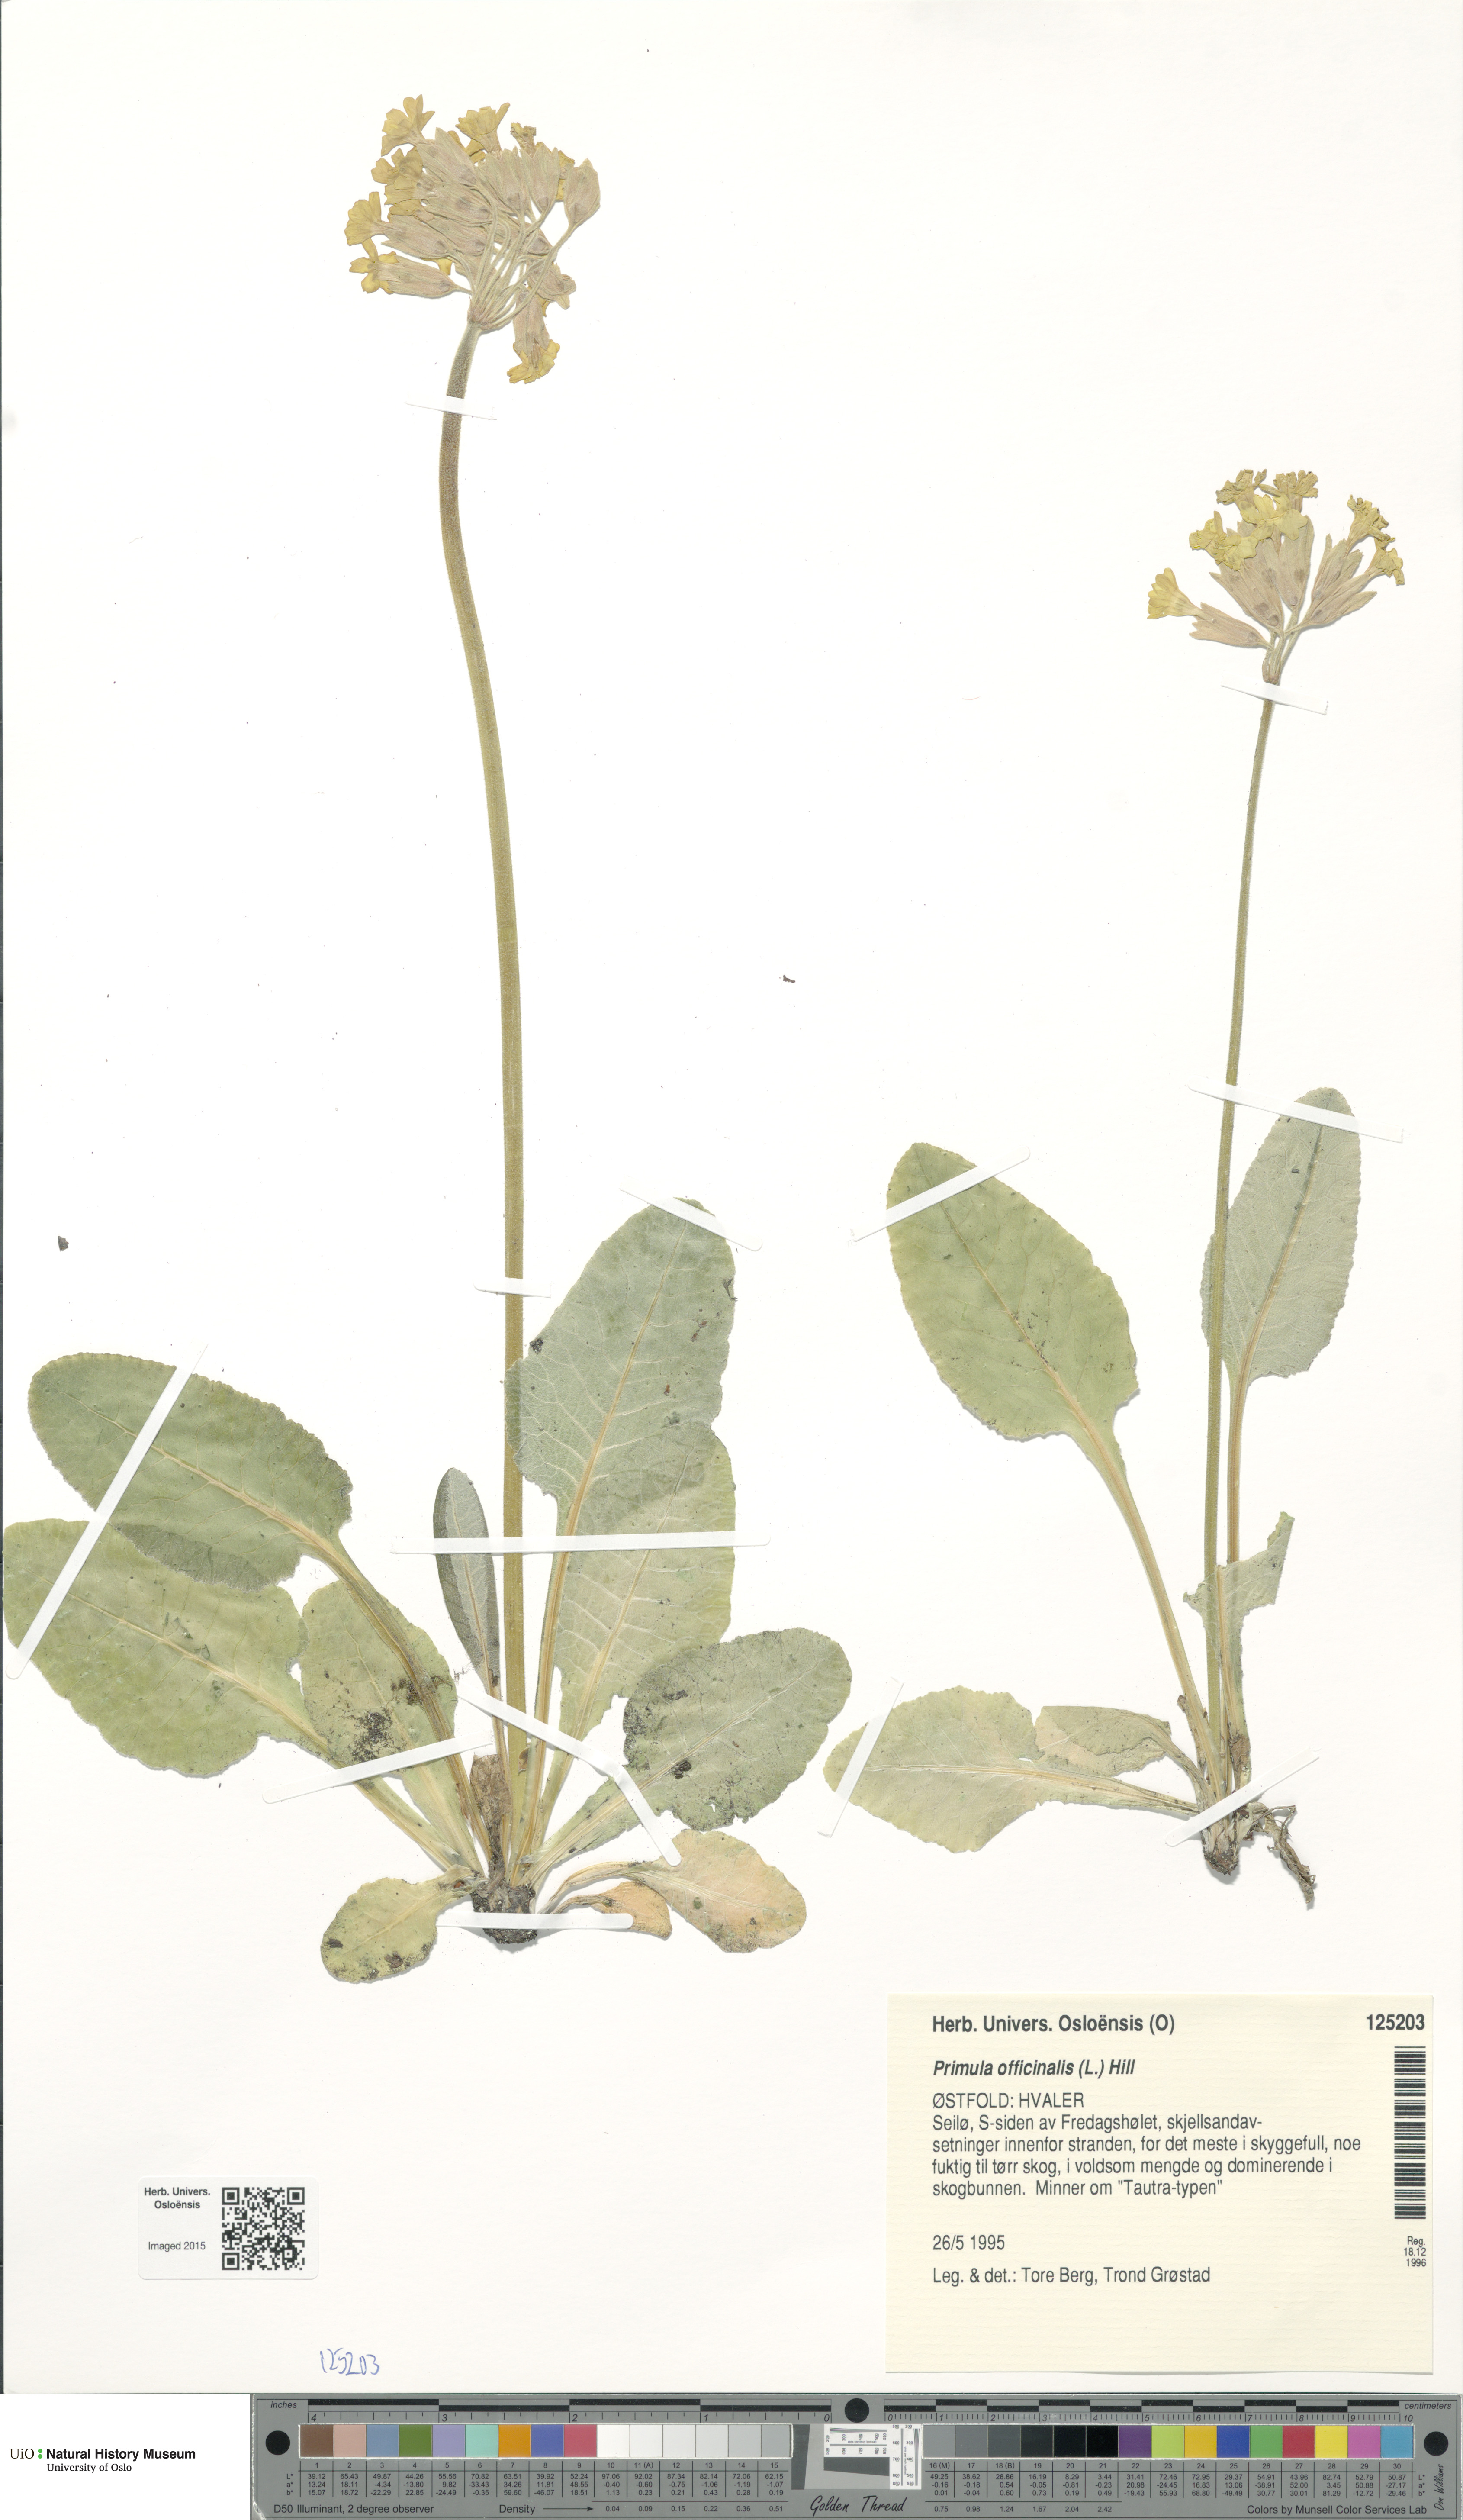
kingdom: Plantae
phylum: Tracheophyta
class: Magnoliopsida
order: Ericales
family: Primulaceae
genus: Primula
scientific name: Primula veris
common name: Cowslip
